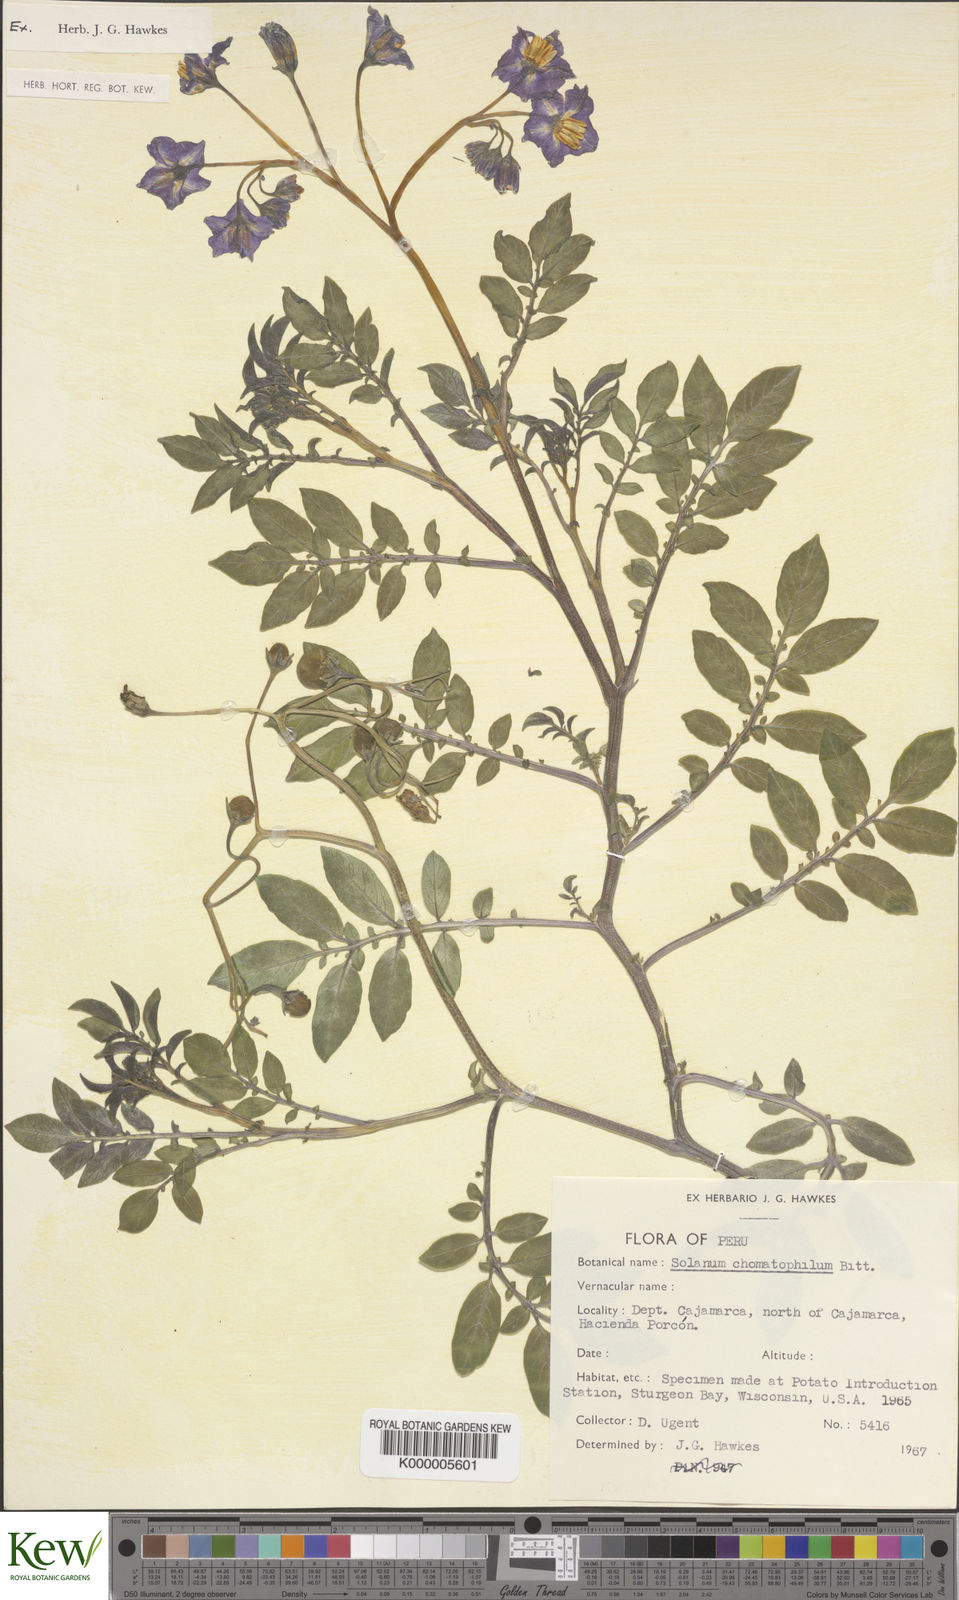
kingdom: Plantae
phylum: Tracheophyta
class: Magnoliopsida
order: Solanales
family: Solanaceae
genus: Solanum
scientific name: Solanum chomatophilum
